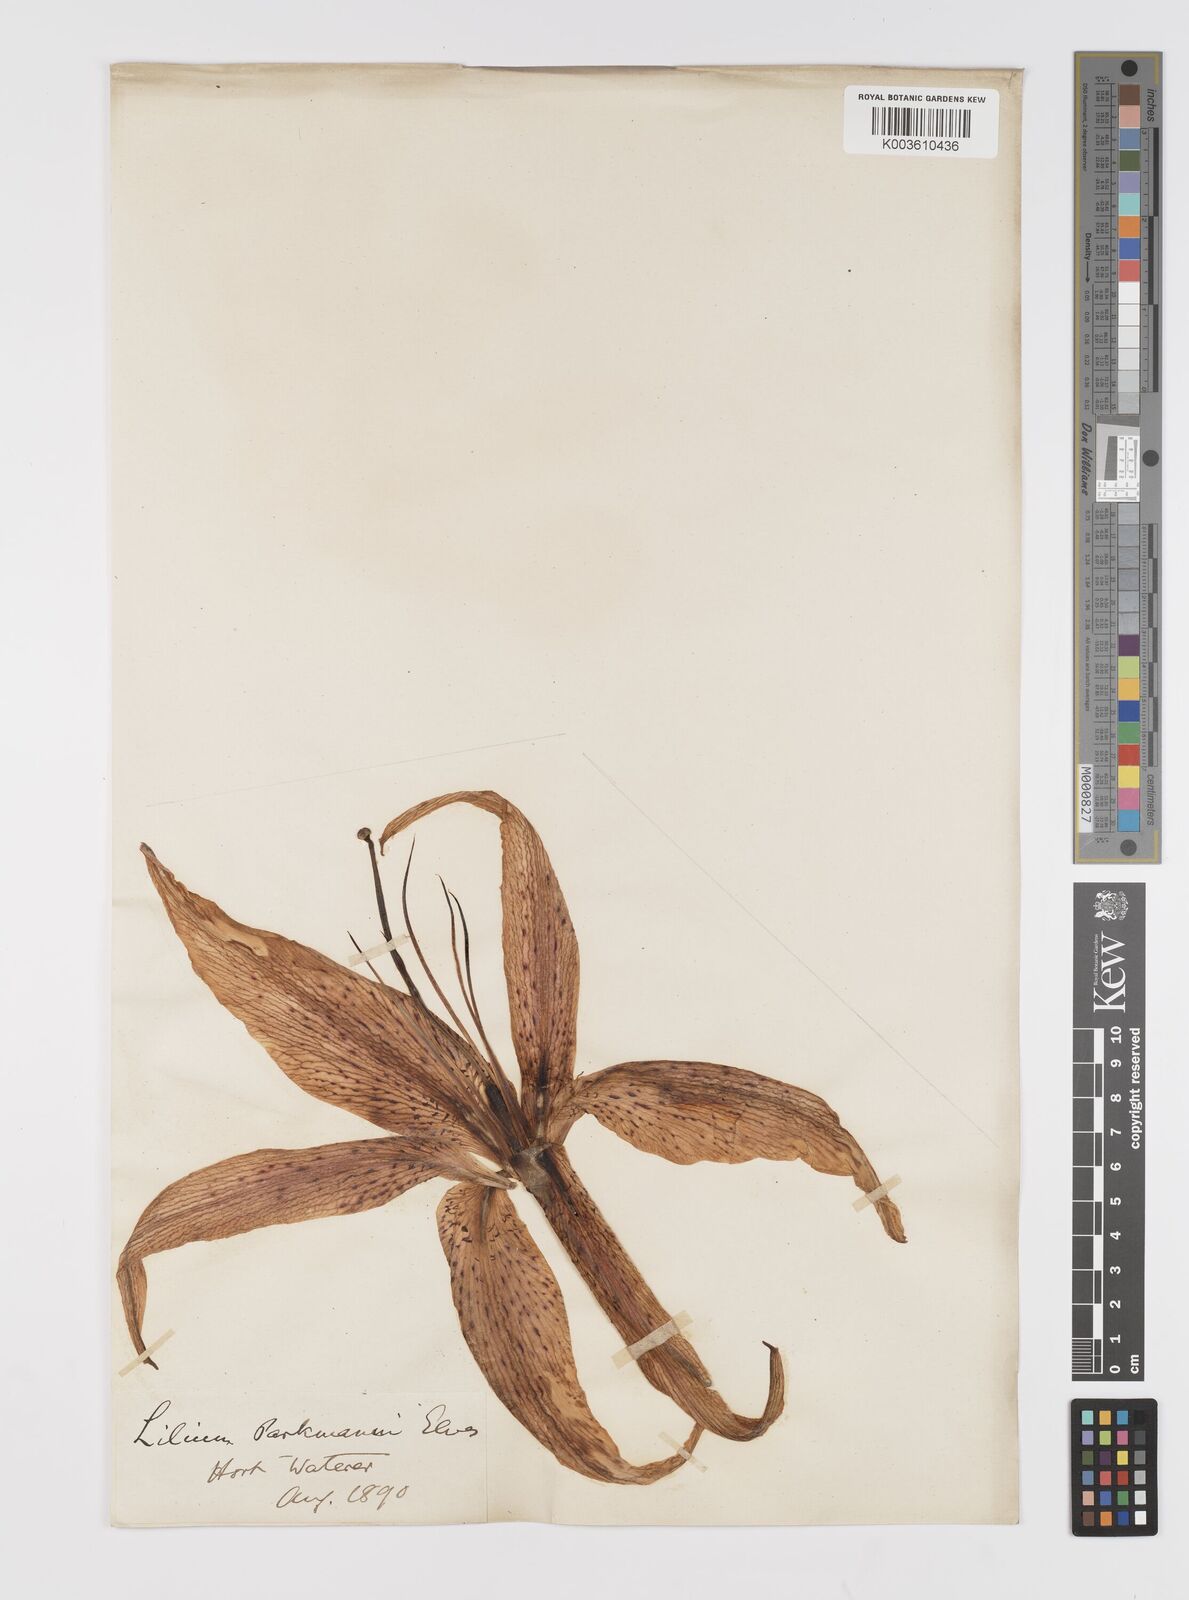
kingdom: Plantae
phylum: Tracheophyta
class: Liliopsida
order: Liliales
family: Liliaceae
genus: Lilium
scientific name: Lilium parkmanii
